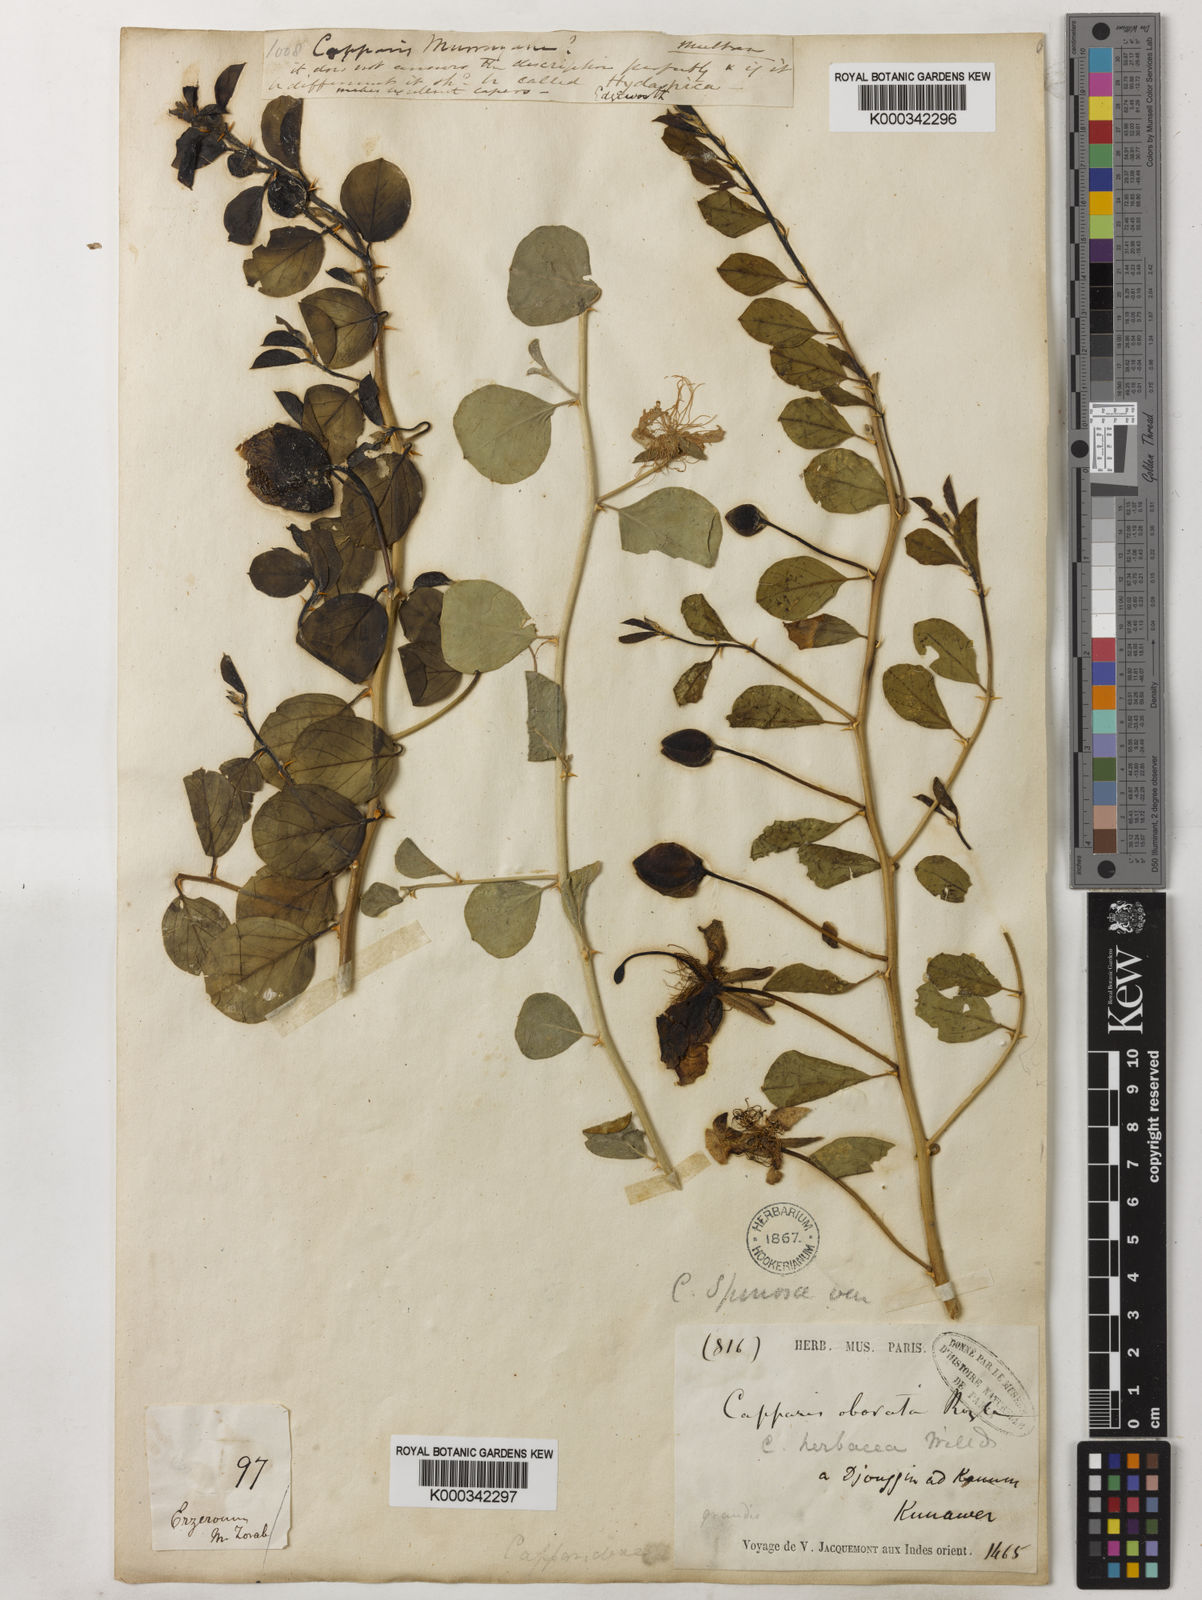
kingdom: Plantae
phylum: Tracheophyta
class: Magnoliopsida
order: Brassicales
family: Capparaceae
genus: Capparis
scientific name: Capparis spinosa
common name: Caper
